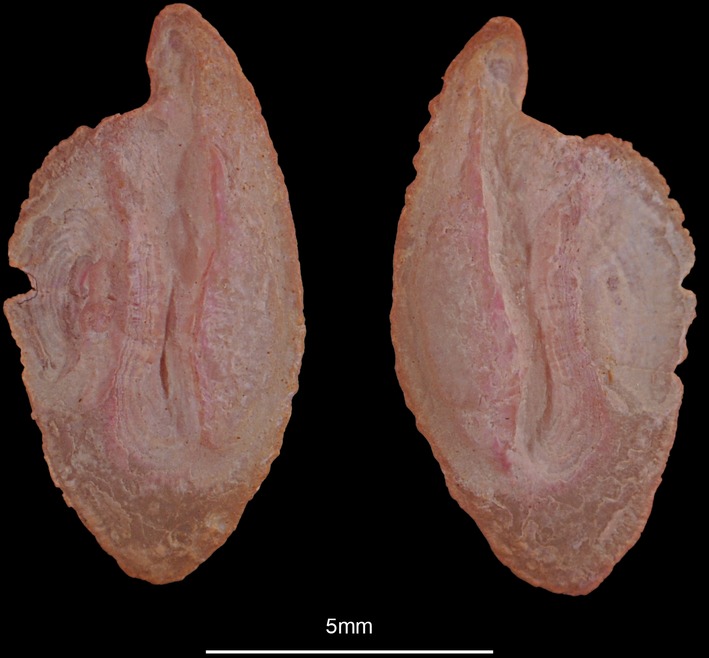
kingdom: Animalia
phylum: Chordata
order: Scorpaeniformes
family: Sebastidae
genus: Helicolenus
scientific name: Helicolenus dactylopterus
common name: Blackbelly rosefish
